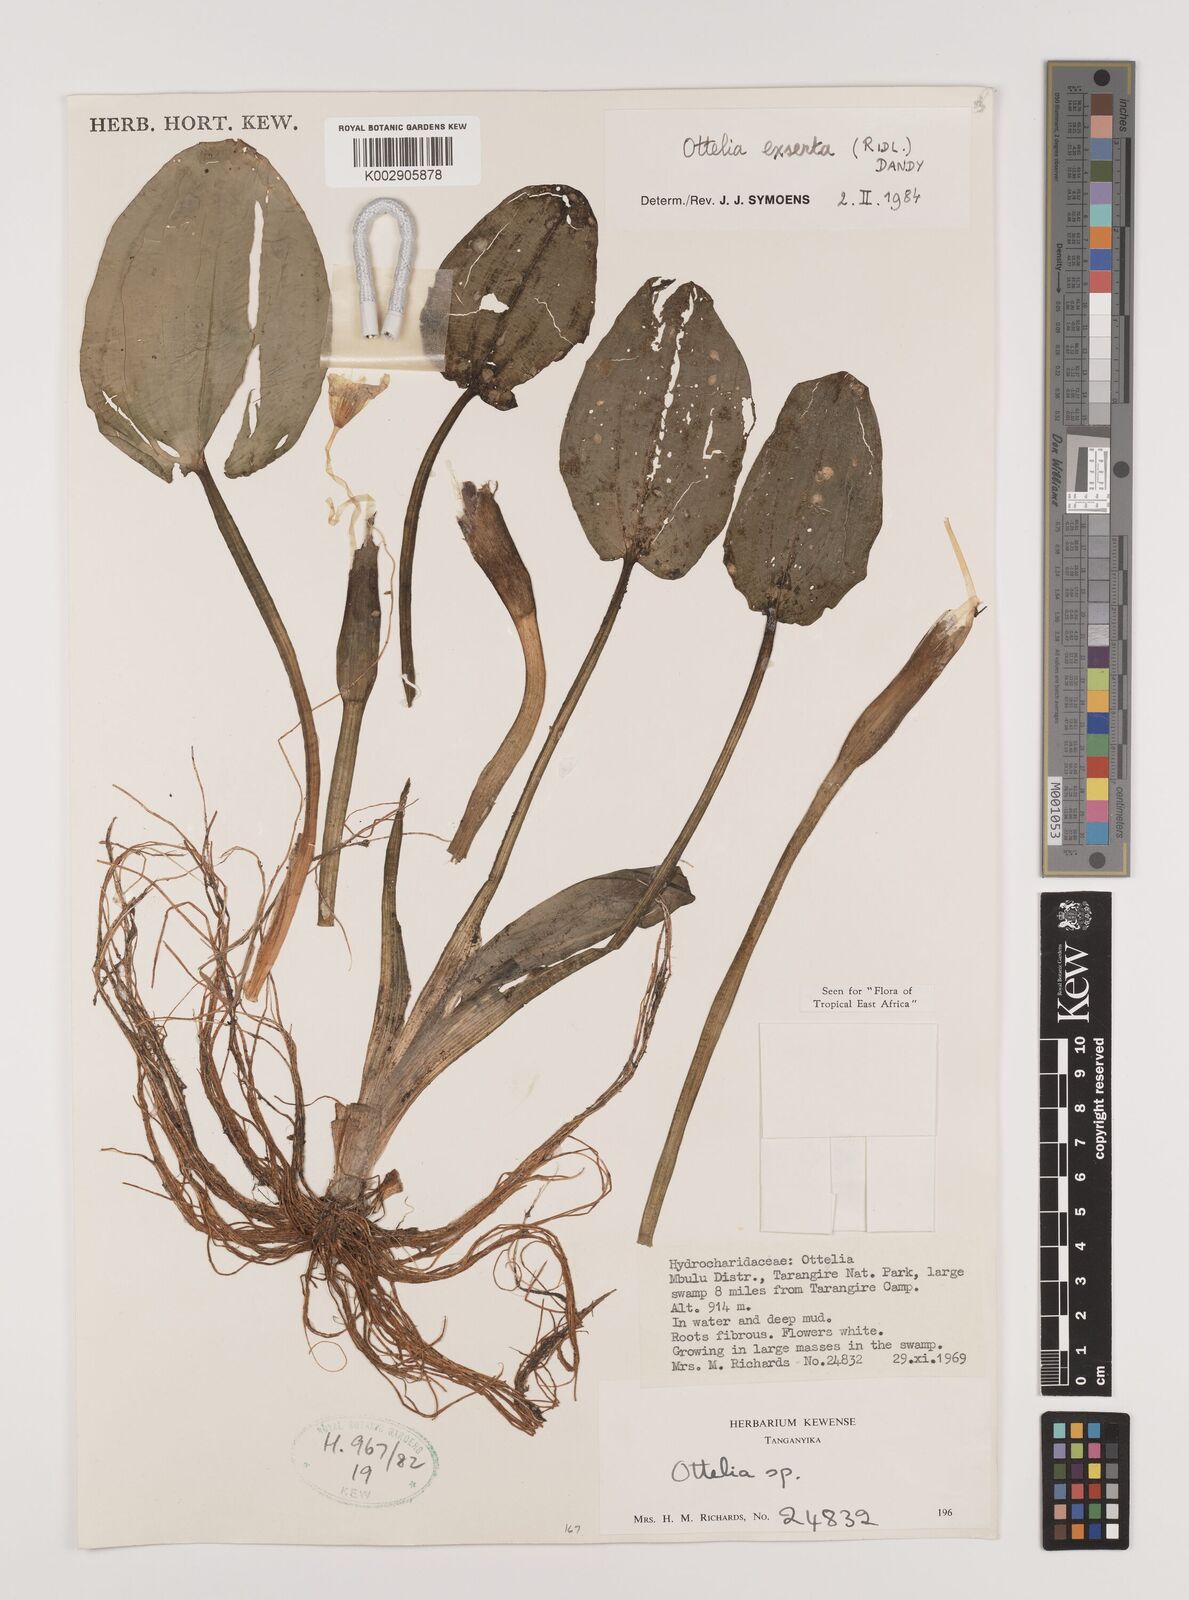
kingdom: Plantae
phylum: Tracheophyta
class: Liliopsida
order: Alismatales
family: Hydrocharitaceae
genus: Ottelia
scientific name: Ottelia exserta
